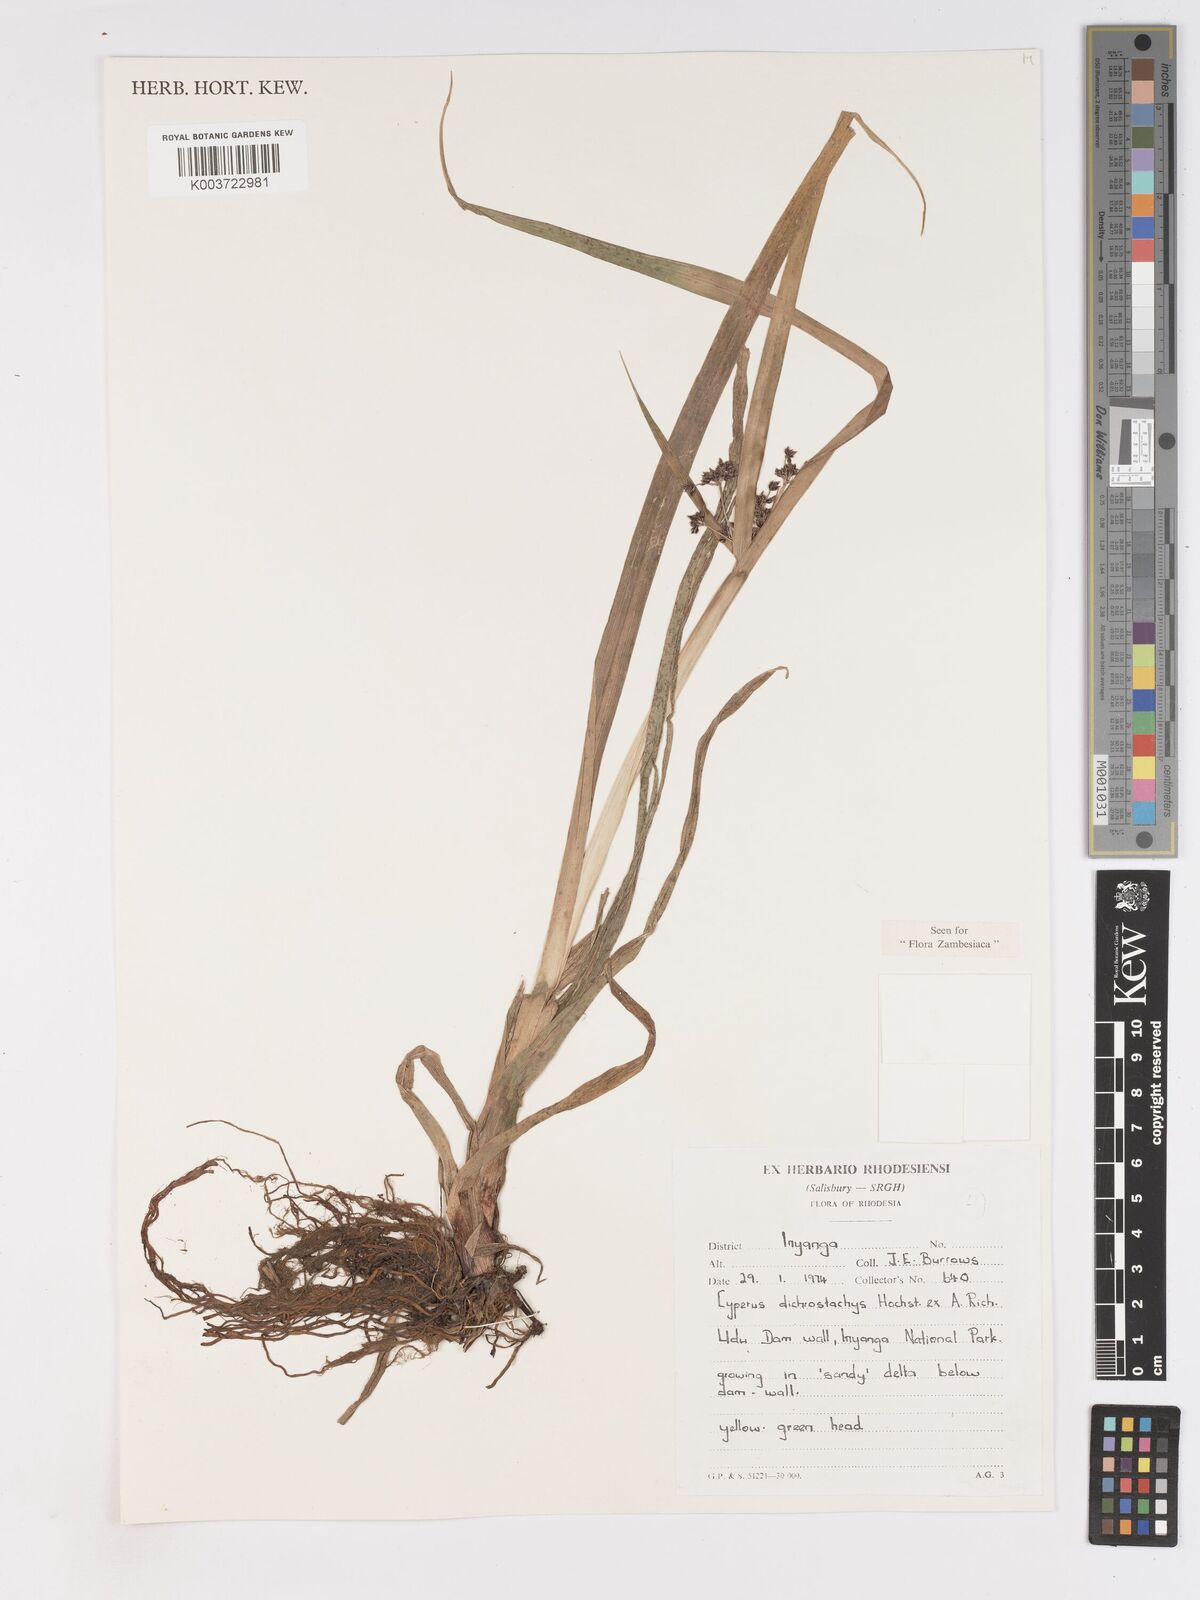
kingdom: Plantae
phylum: Tracheophyta
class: Liliopsida
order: Poales
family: Cyperaceae
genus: Cyperus
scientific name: Cyperus dichrostachyus
